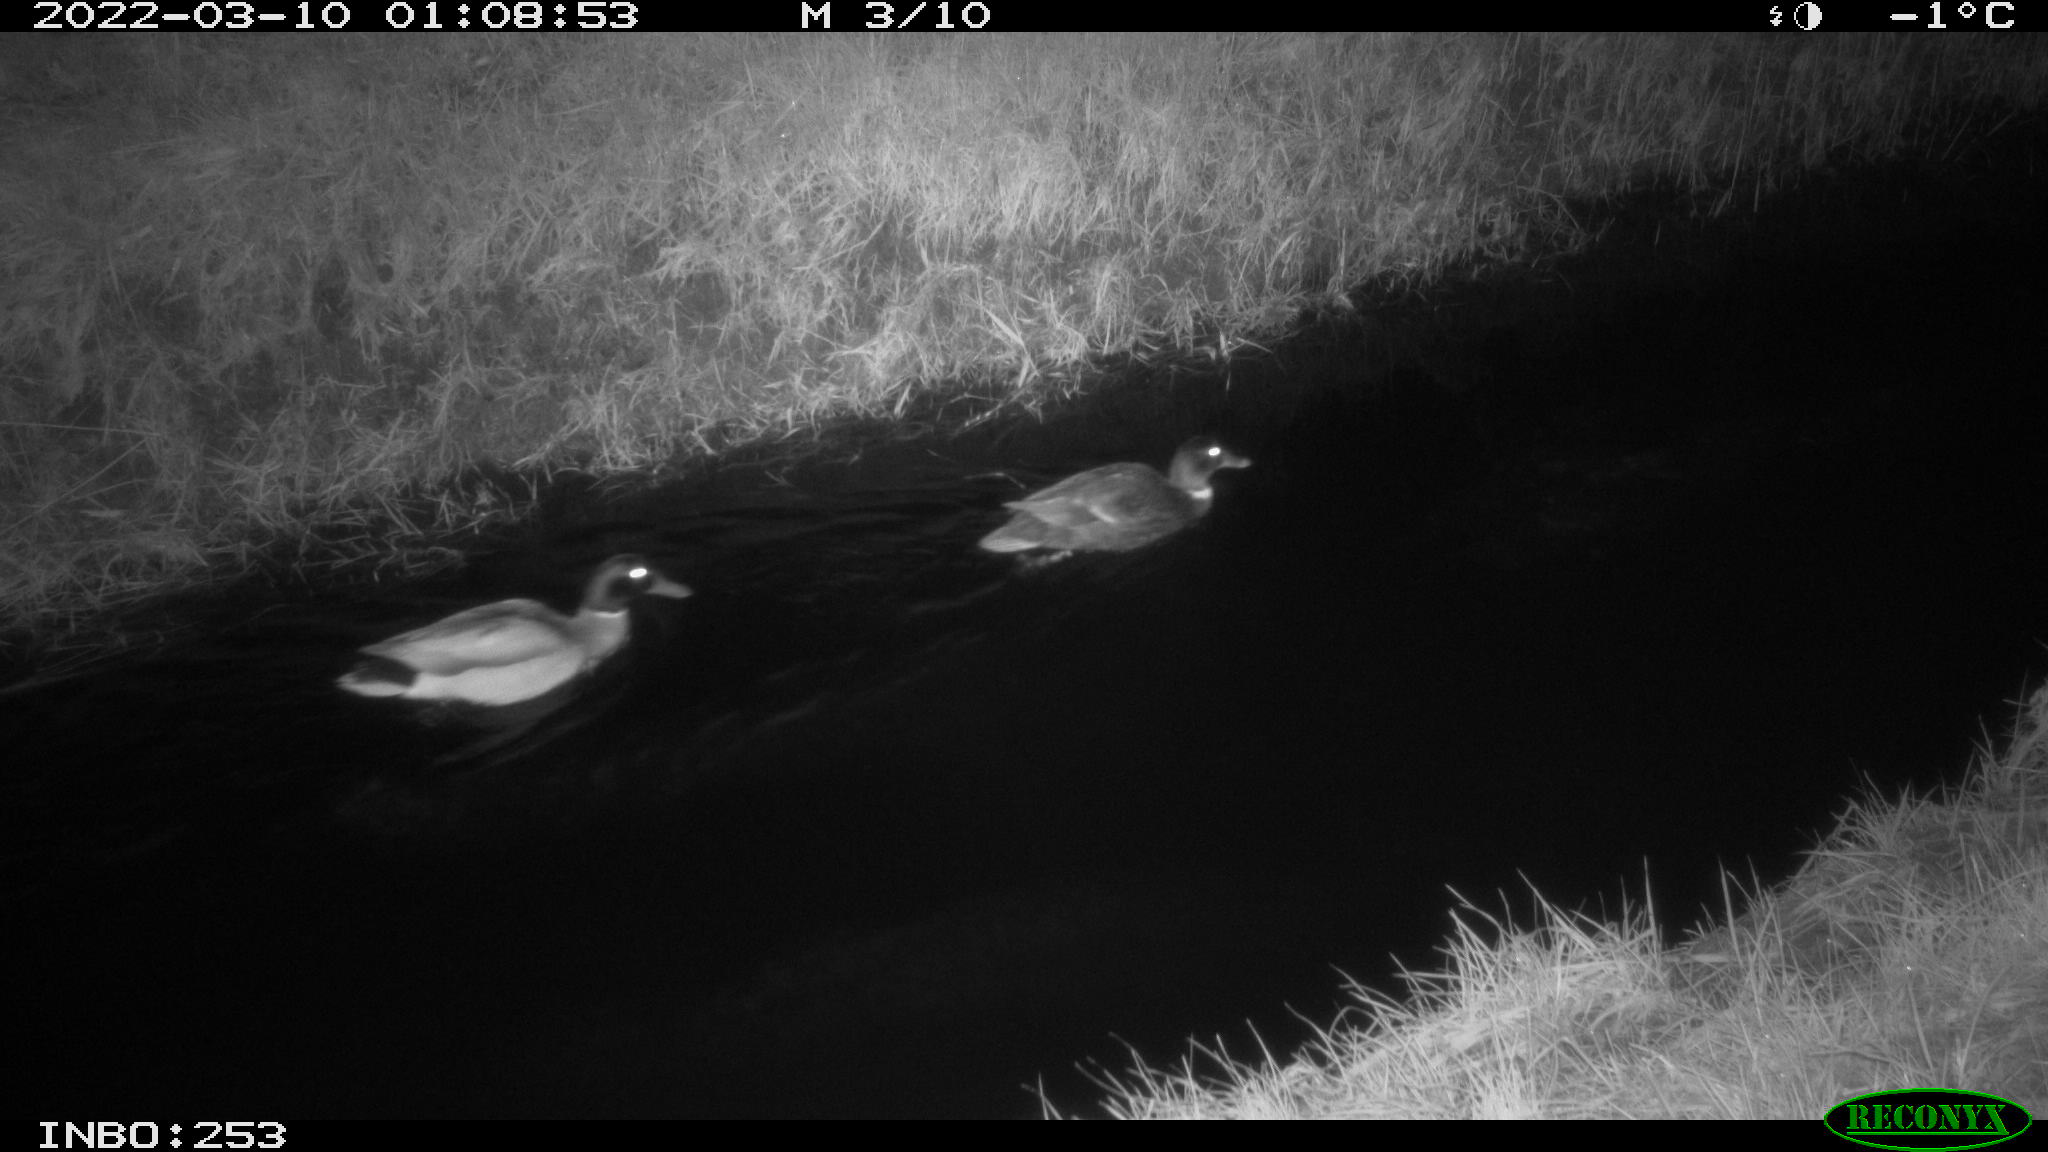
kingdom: Animalia
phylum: Chordata
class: Aves
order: Anseriformes
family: Anatidae
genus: Anas
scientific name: Anas platyrhynchos
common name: Mallard
